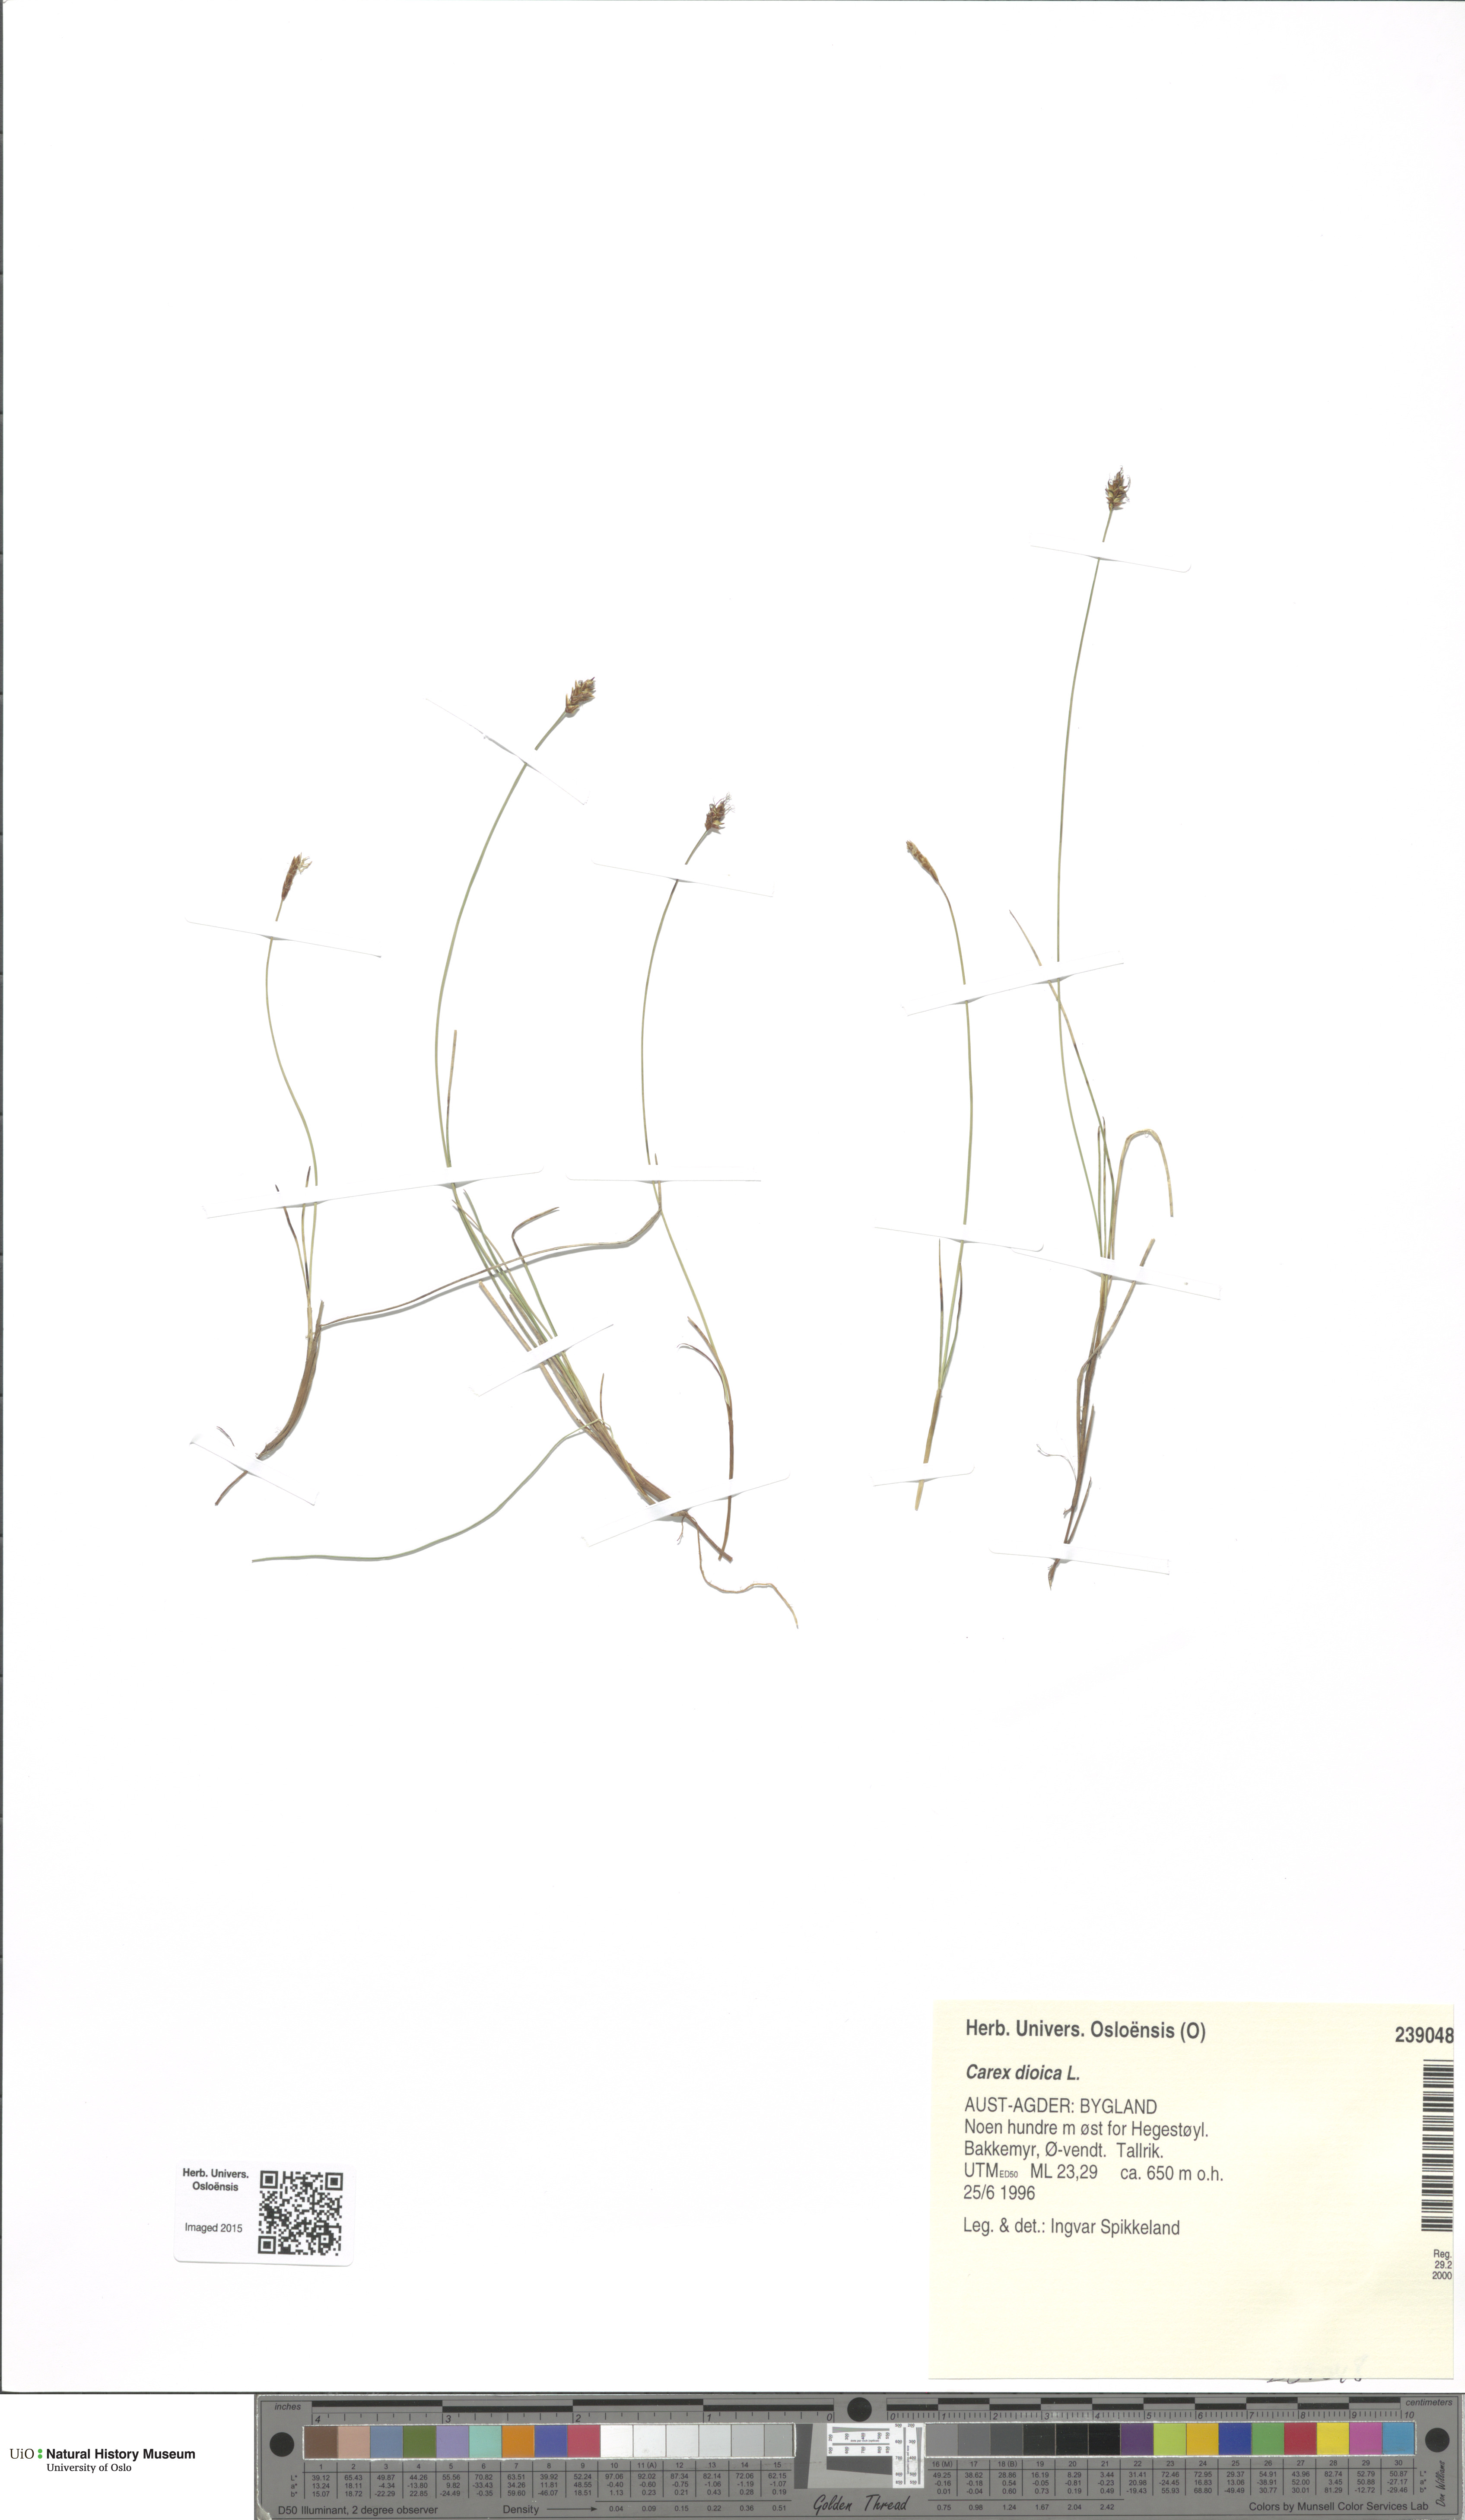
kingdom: Plantae
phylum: Tracheophyta
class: Liliopsida
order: Poales
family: Cyperaceae
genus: Carex
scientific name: Carex dioica
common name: Dioecious sedge
